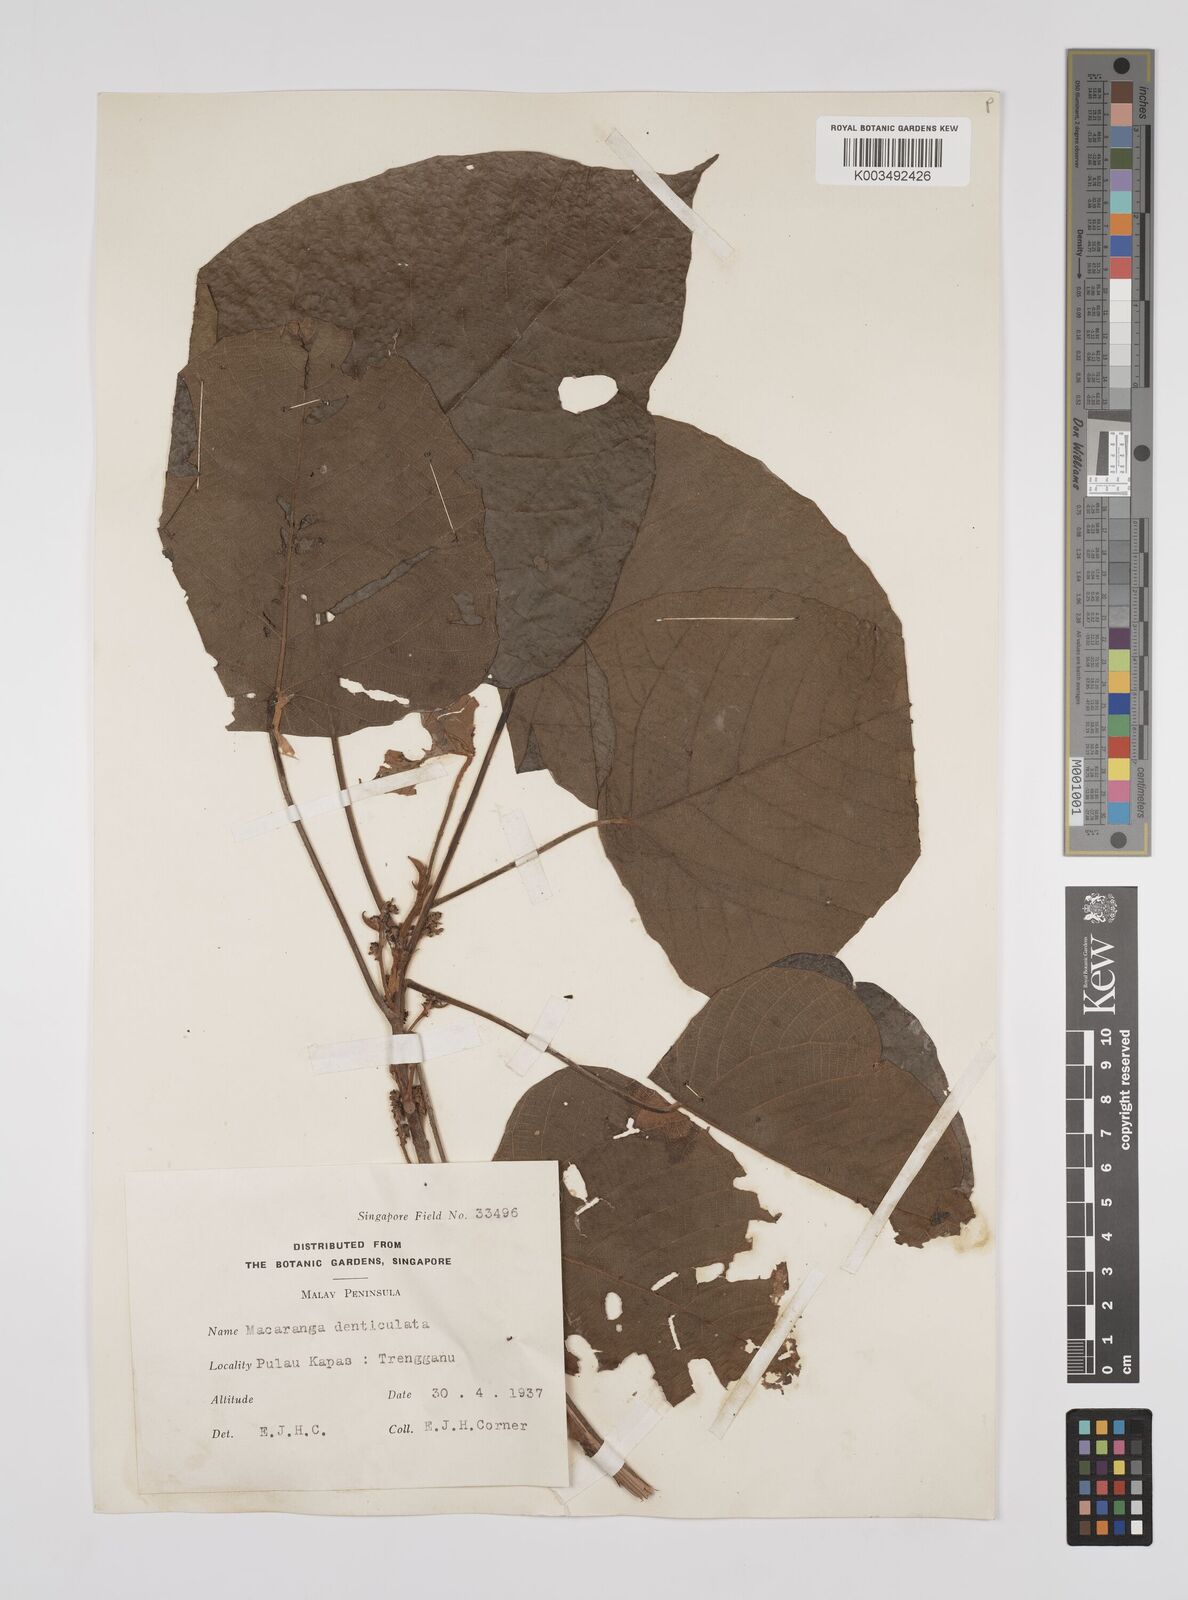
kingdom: Plantae
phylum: Tracheophyta
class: Magnoliopsida
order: Malpighiales
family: Euphorbiaceae
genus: Macaranga
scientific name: Macaranga denticulata
